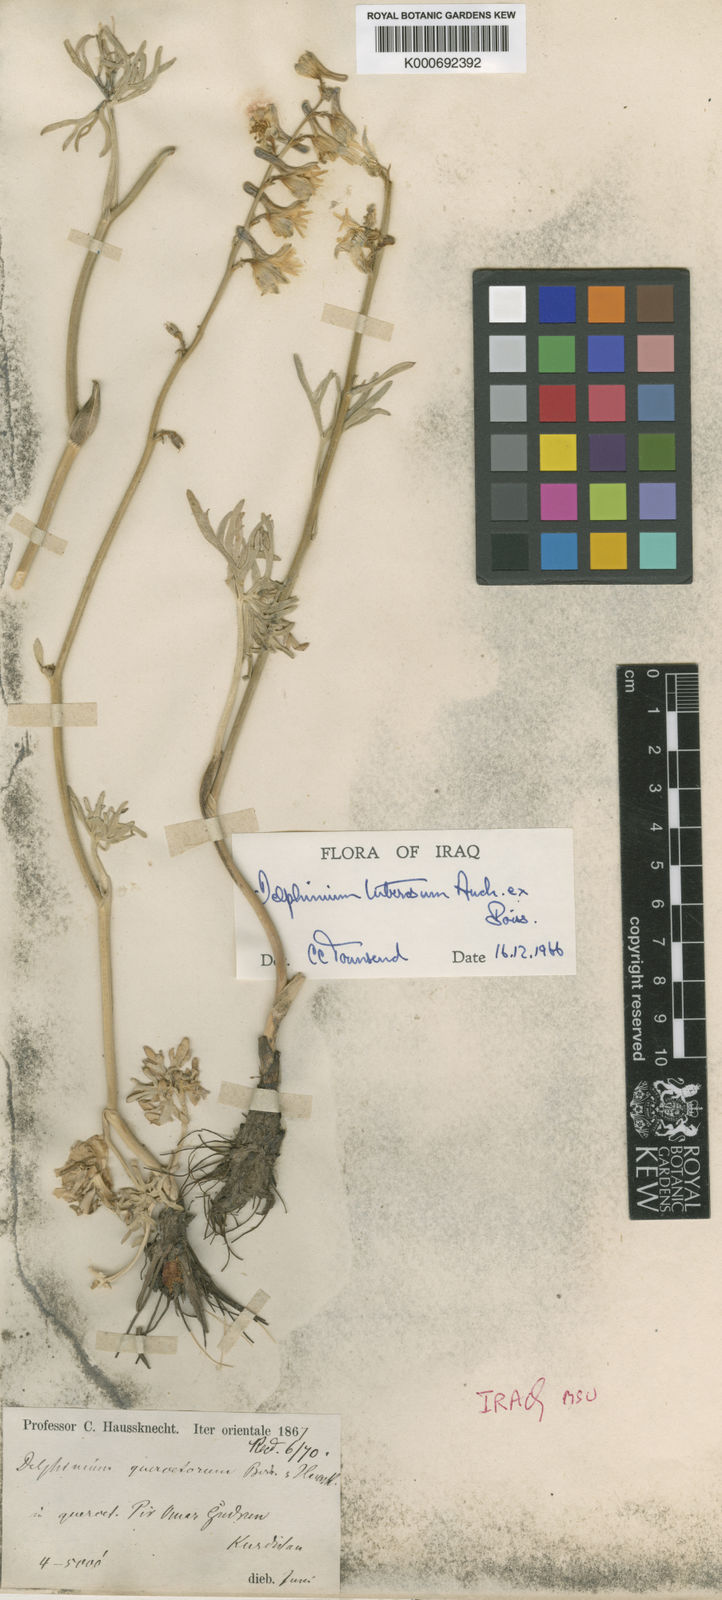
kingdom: Plantae
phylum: Tracheophyta
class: Magnoliopsida
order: Ranunculales
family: Ranunculaceae
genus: Delphinium
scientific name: Delphinium tuberosum
